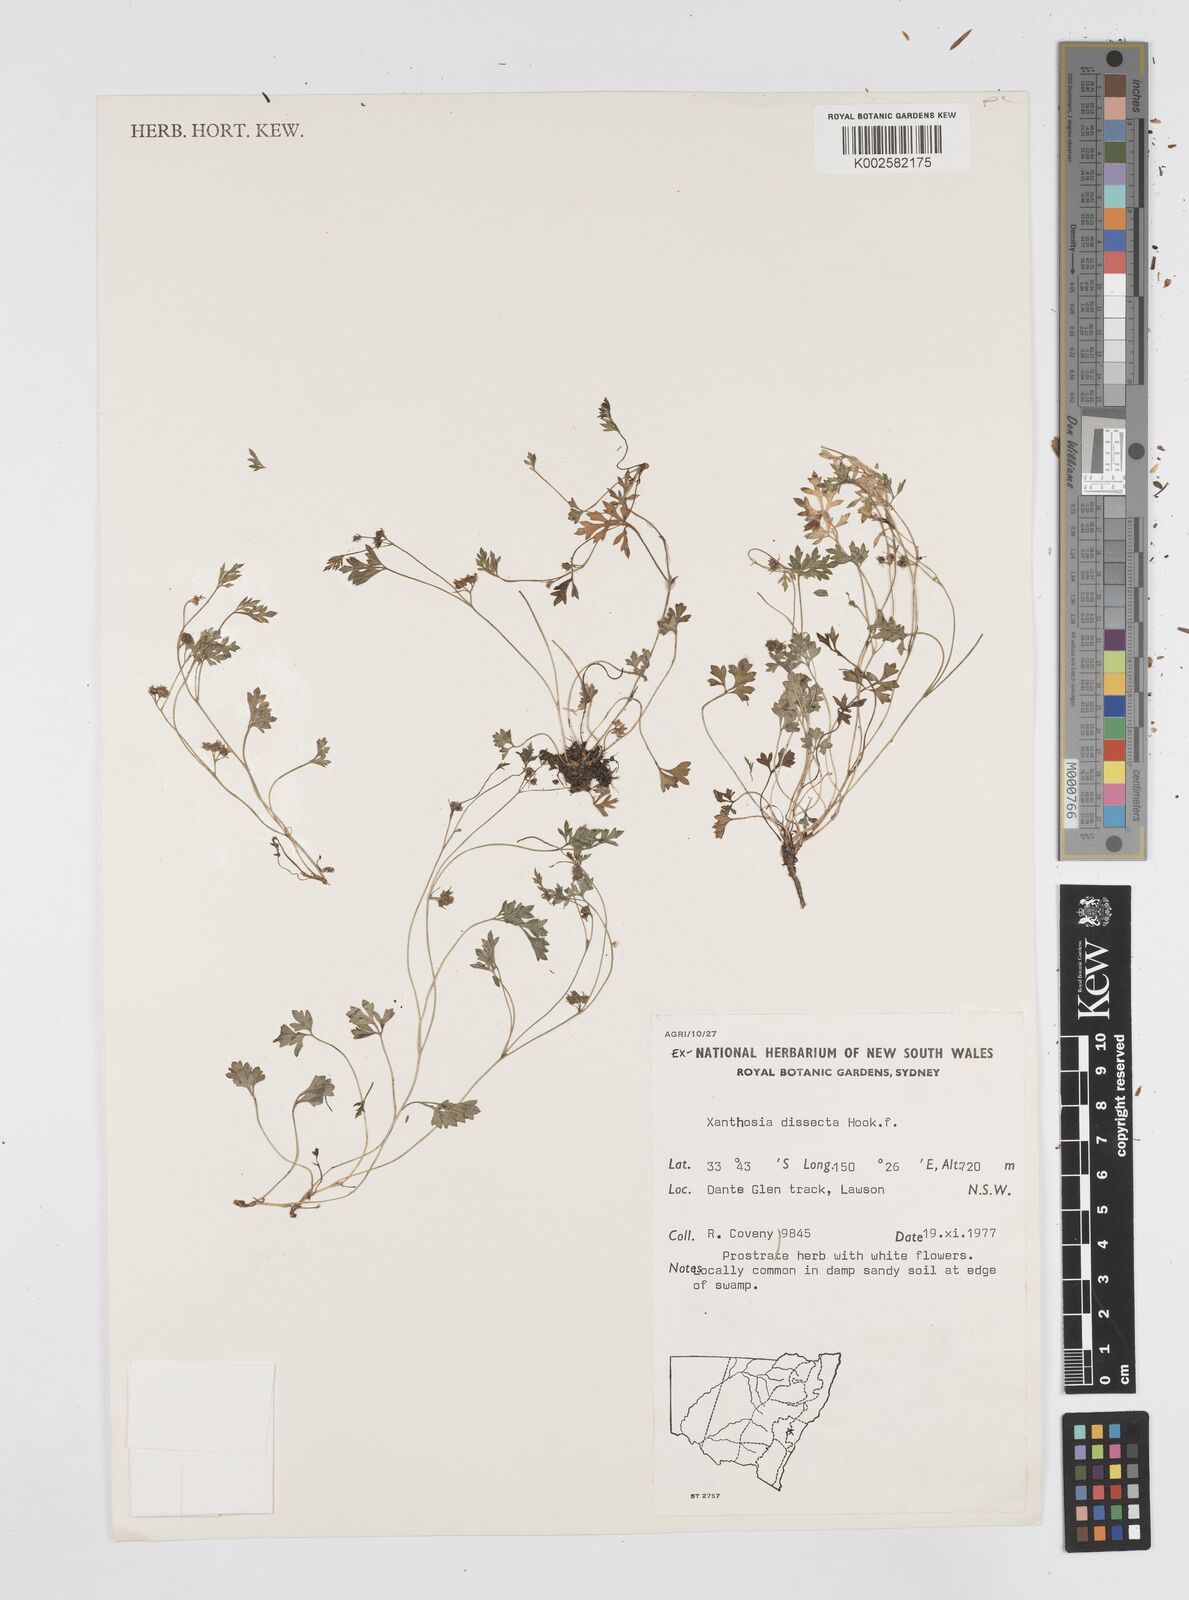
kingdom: Plantae
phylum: Tracheophyta
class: Magnoliopsida
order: Apiales
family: Apiaceae
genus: Xanthosia
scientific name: Xanthosia dissecta
